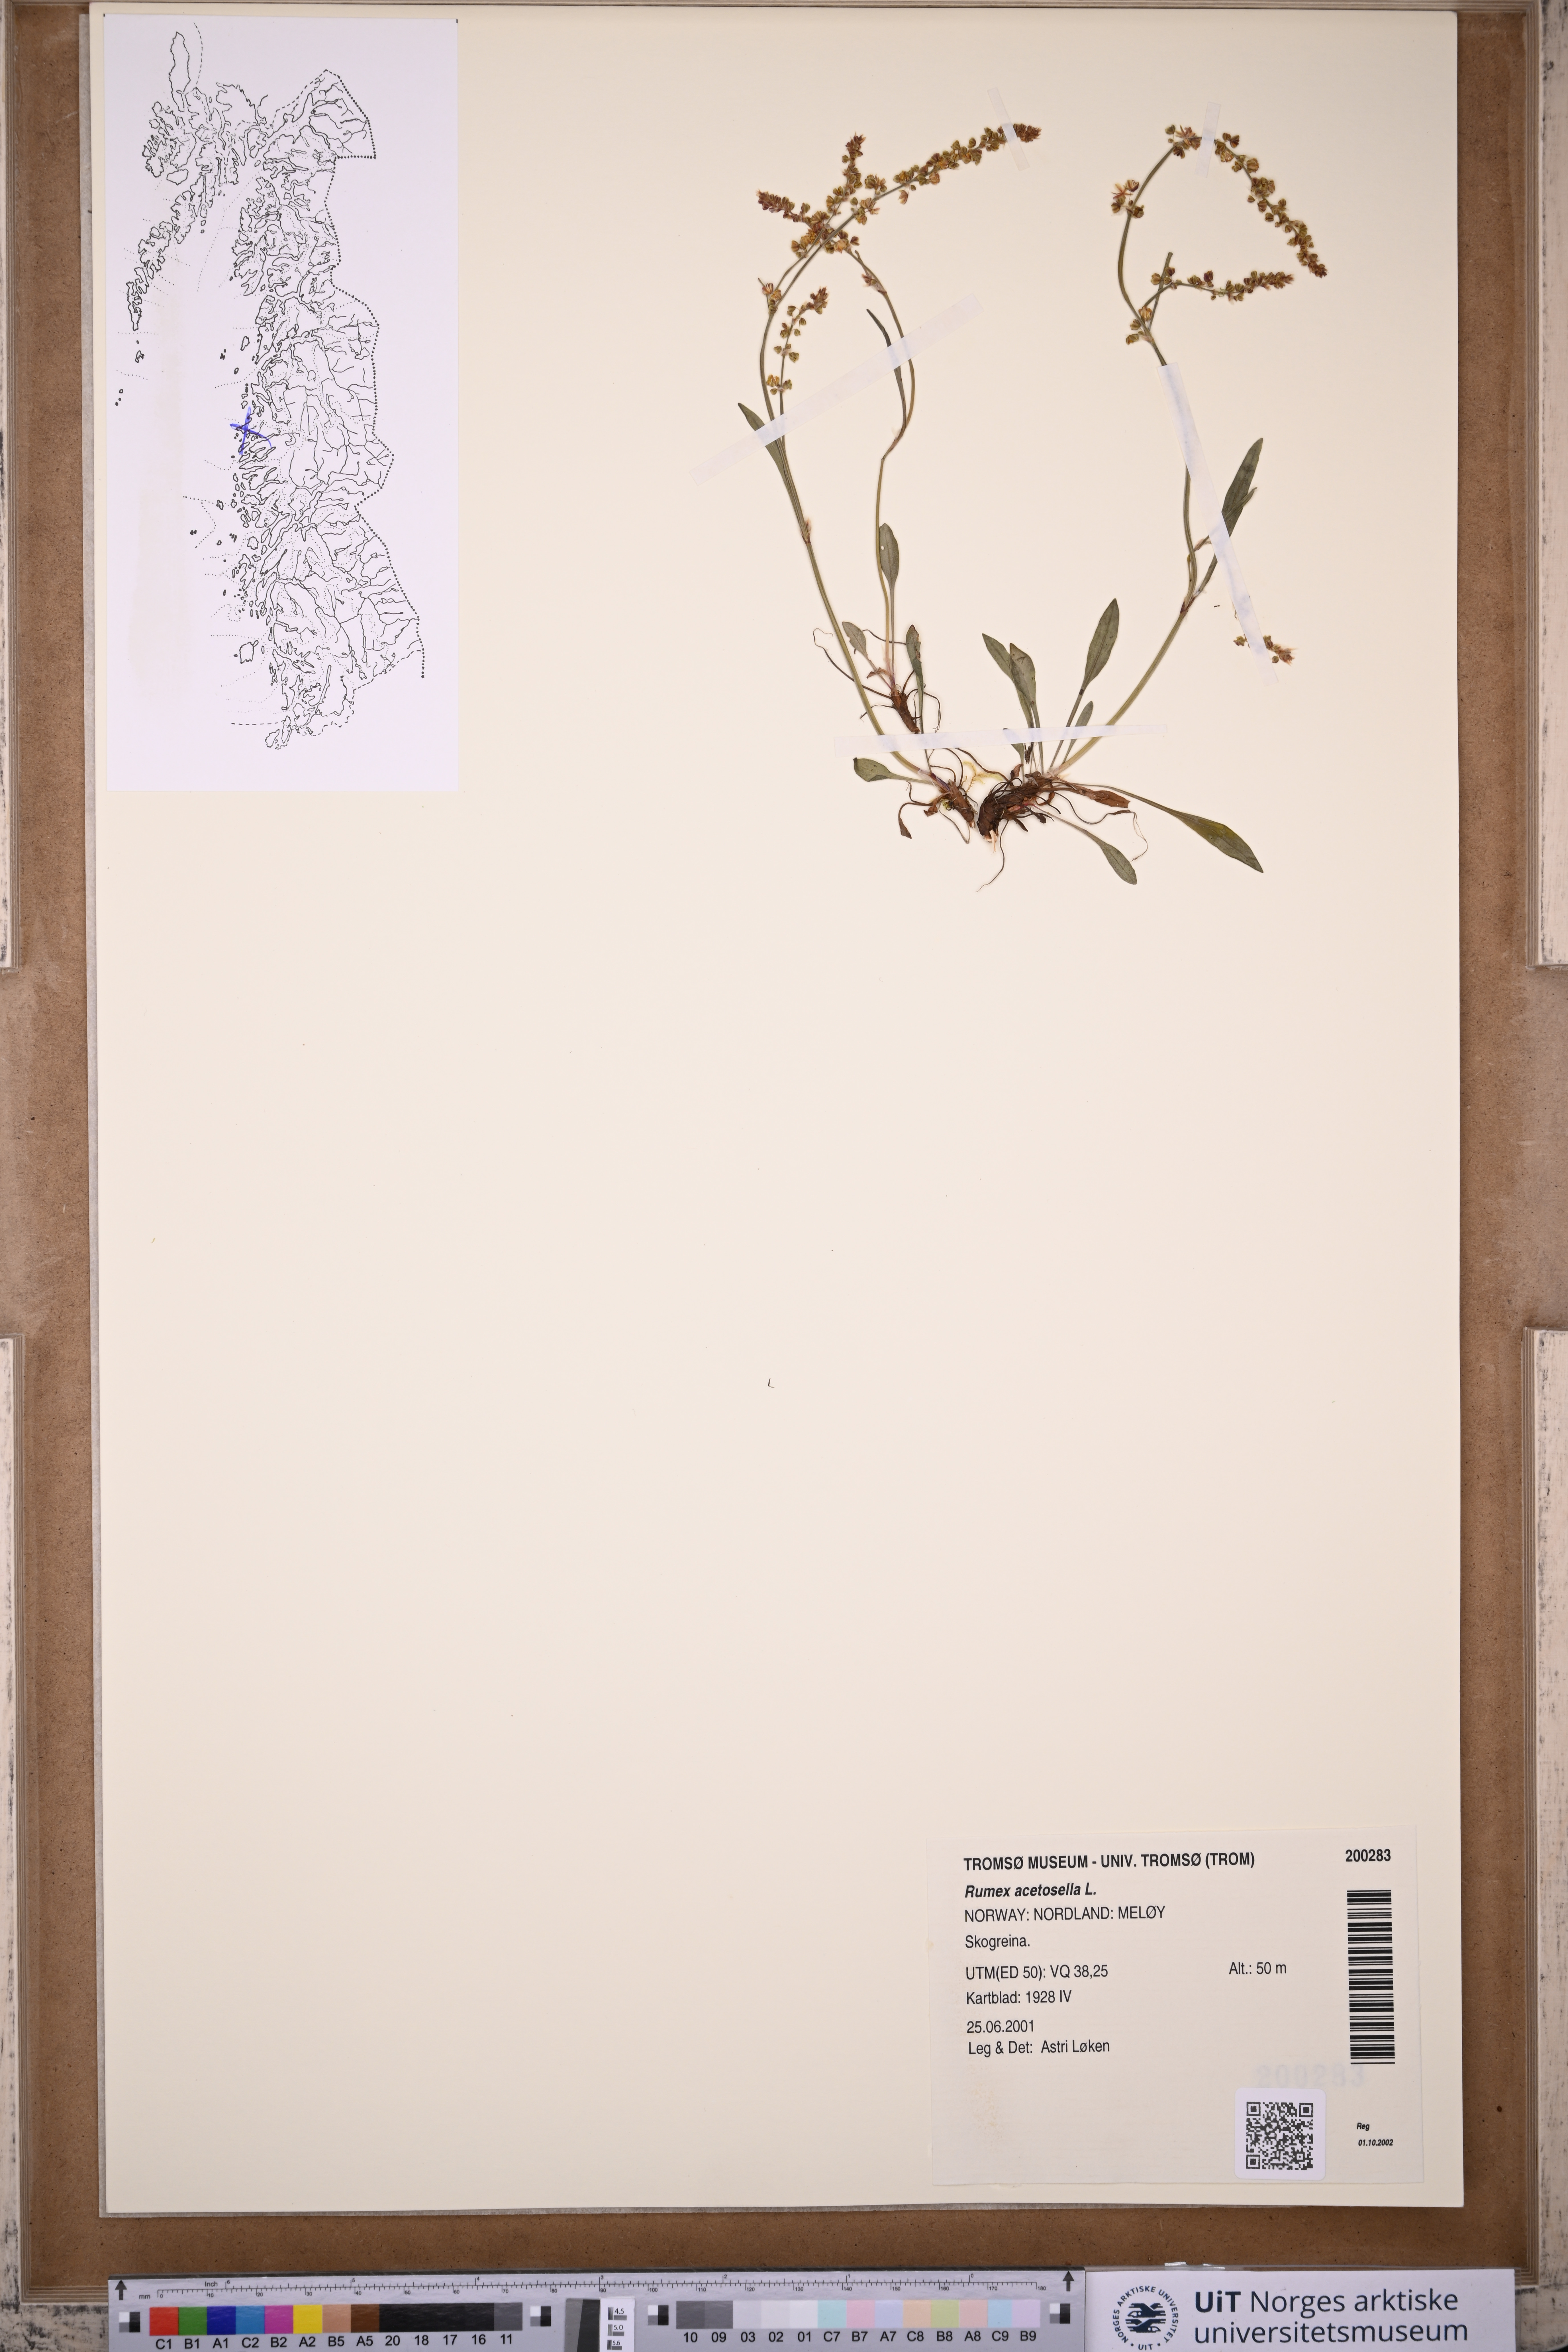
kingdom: Plantae
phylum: Tracheophyta
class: Magnoliopsida
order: Caryophyllales
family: Polygonaceae
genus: Rumex
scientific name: Rumex acetosella
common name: Common sheep sorrel
